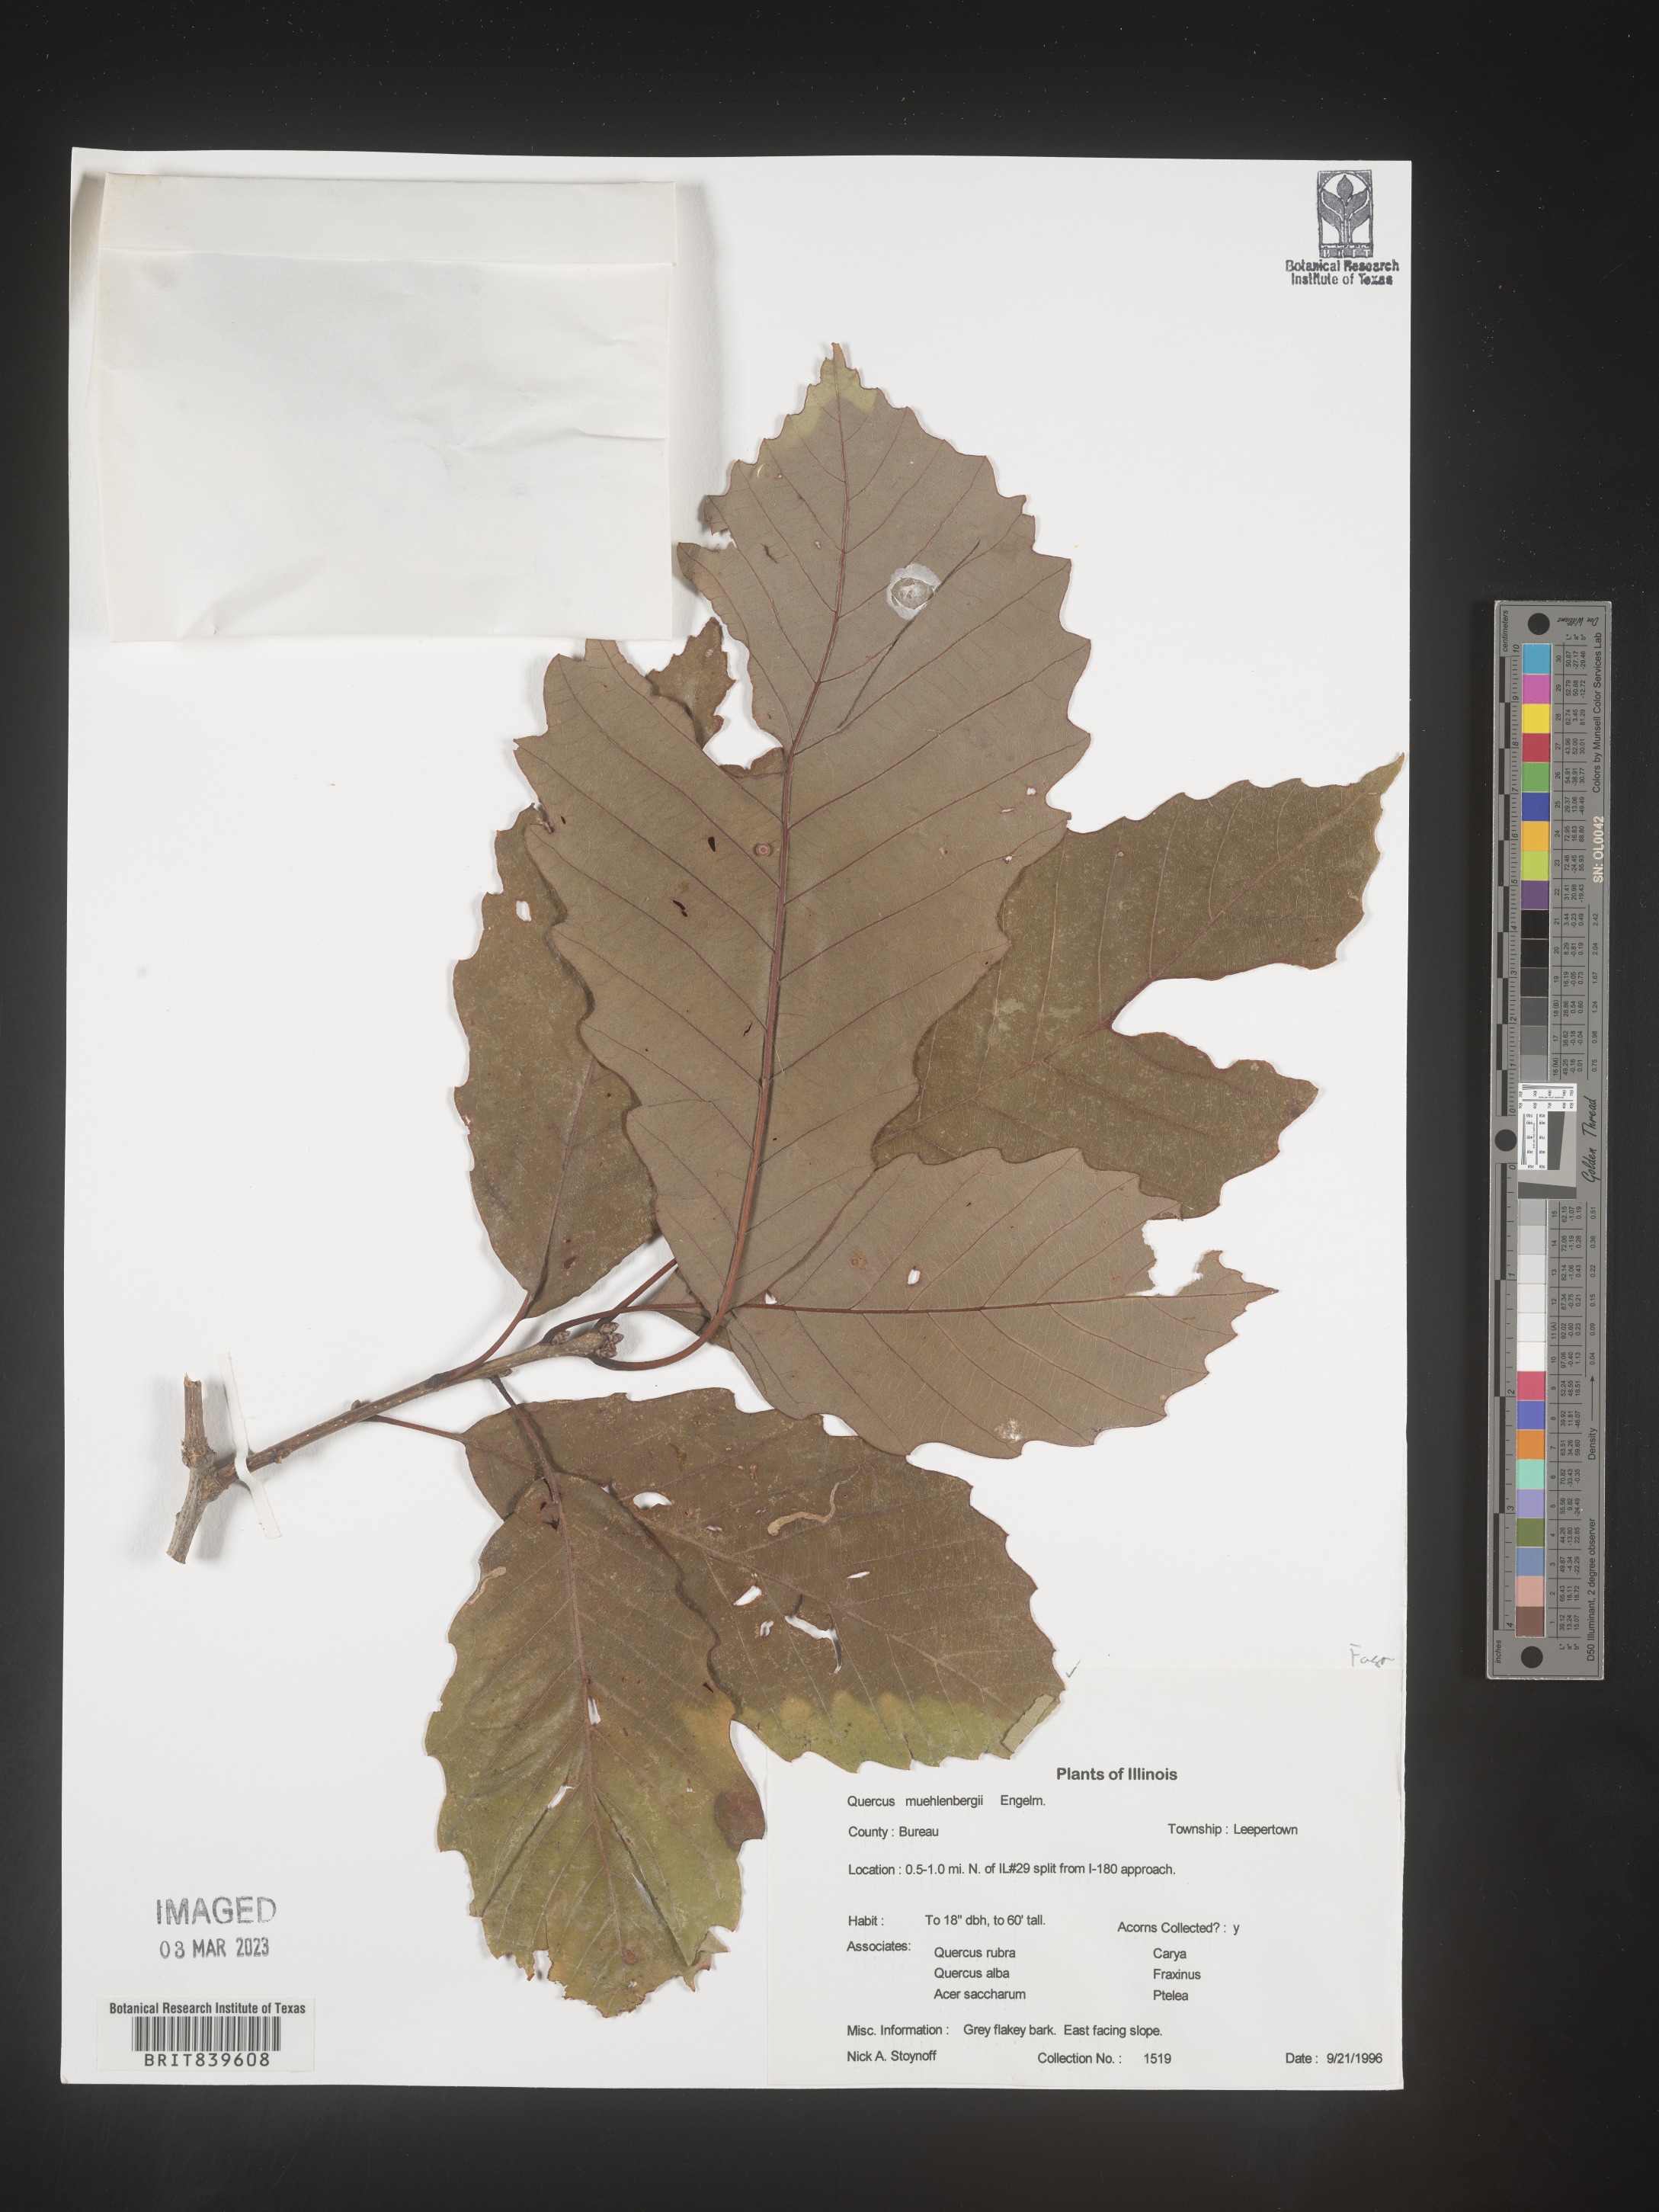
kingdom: Plantae
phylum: Tracheophyta
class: Magnoliopsida
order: Fagales
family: Fagaceae
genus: Quercus
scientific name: Quercus muehlenbergii
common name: Chinkapin oak
